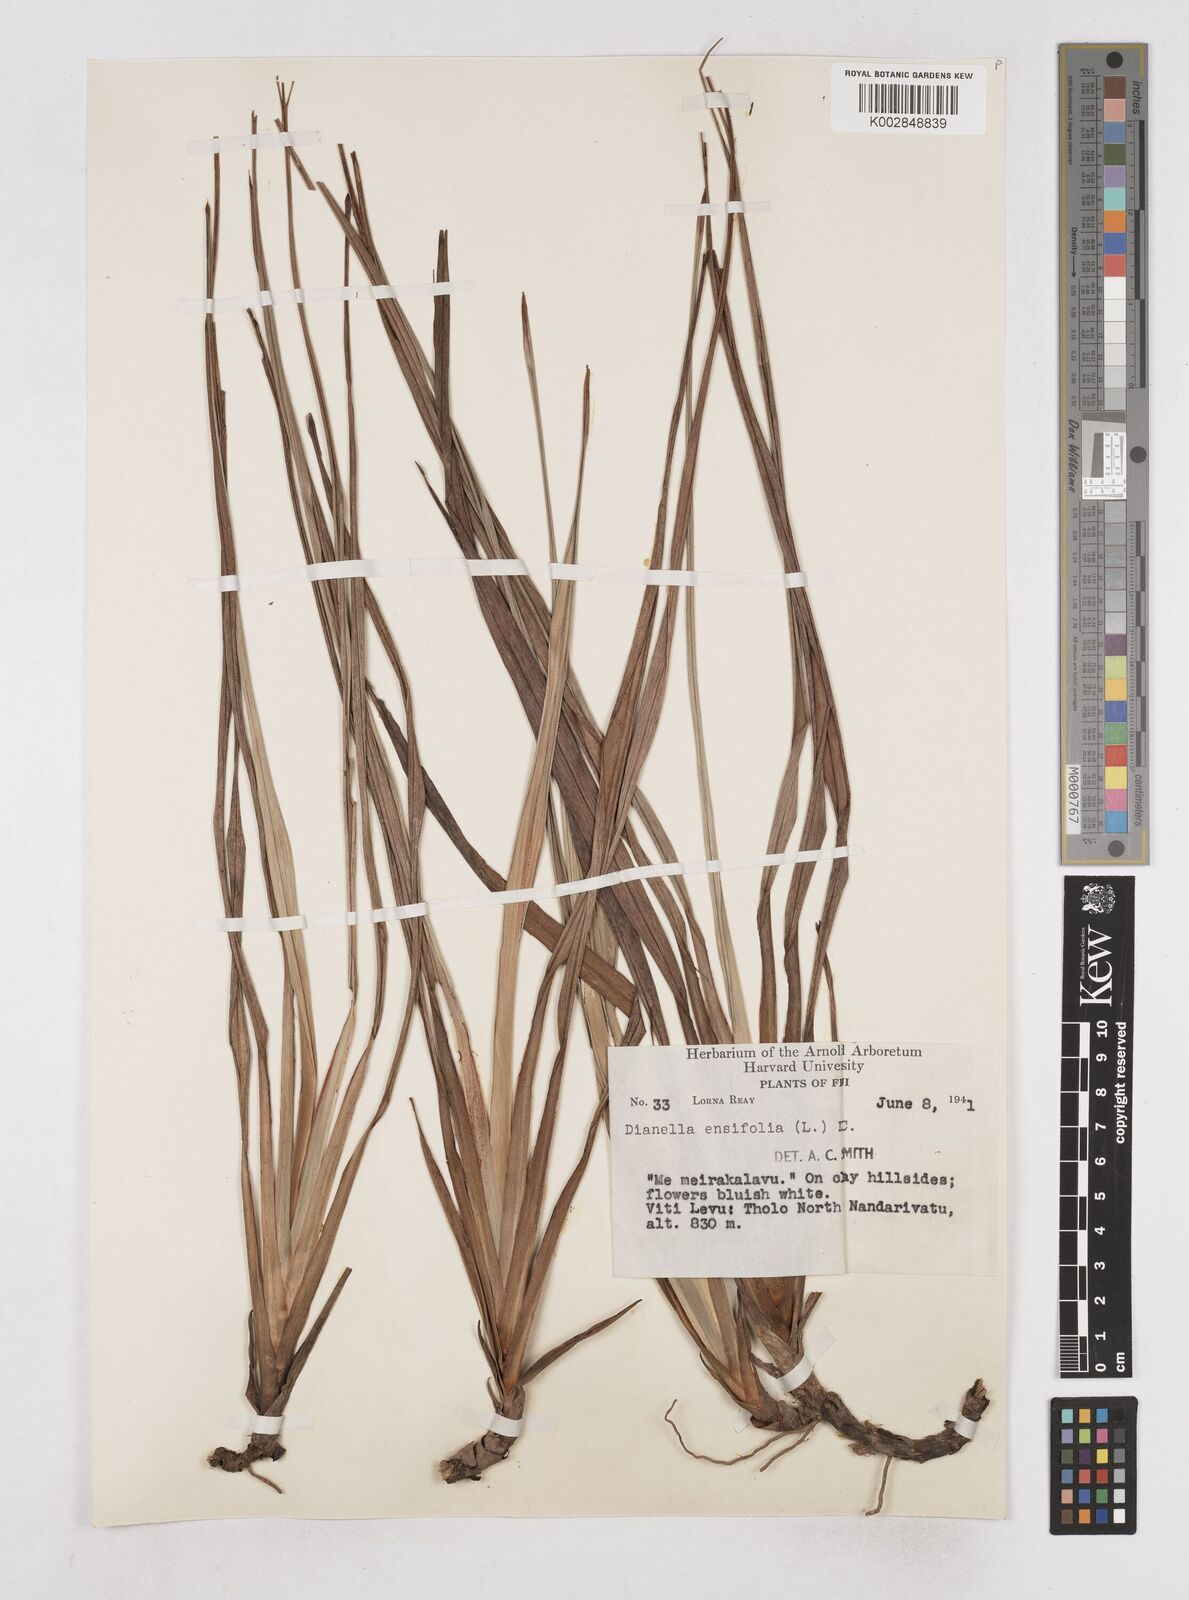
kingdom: Plantae
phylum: Tracheophyta
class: Liliopsida
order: Asparagales
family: Asphodelaceae
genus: Dianella
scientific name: Dianella ensifolia
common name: New zealand lilyplant
